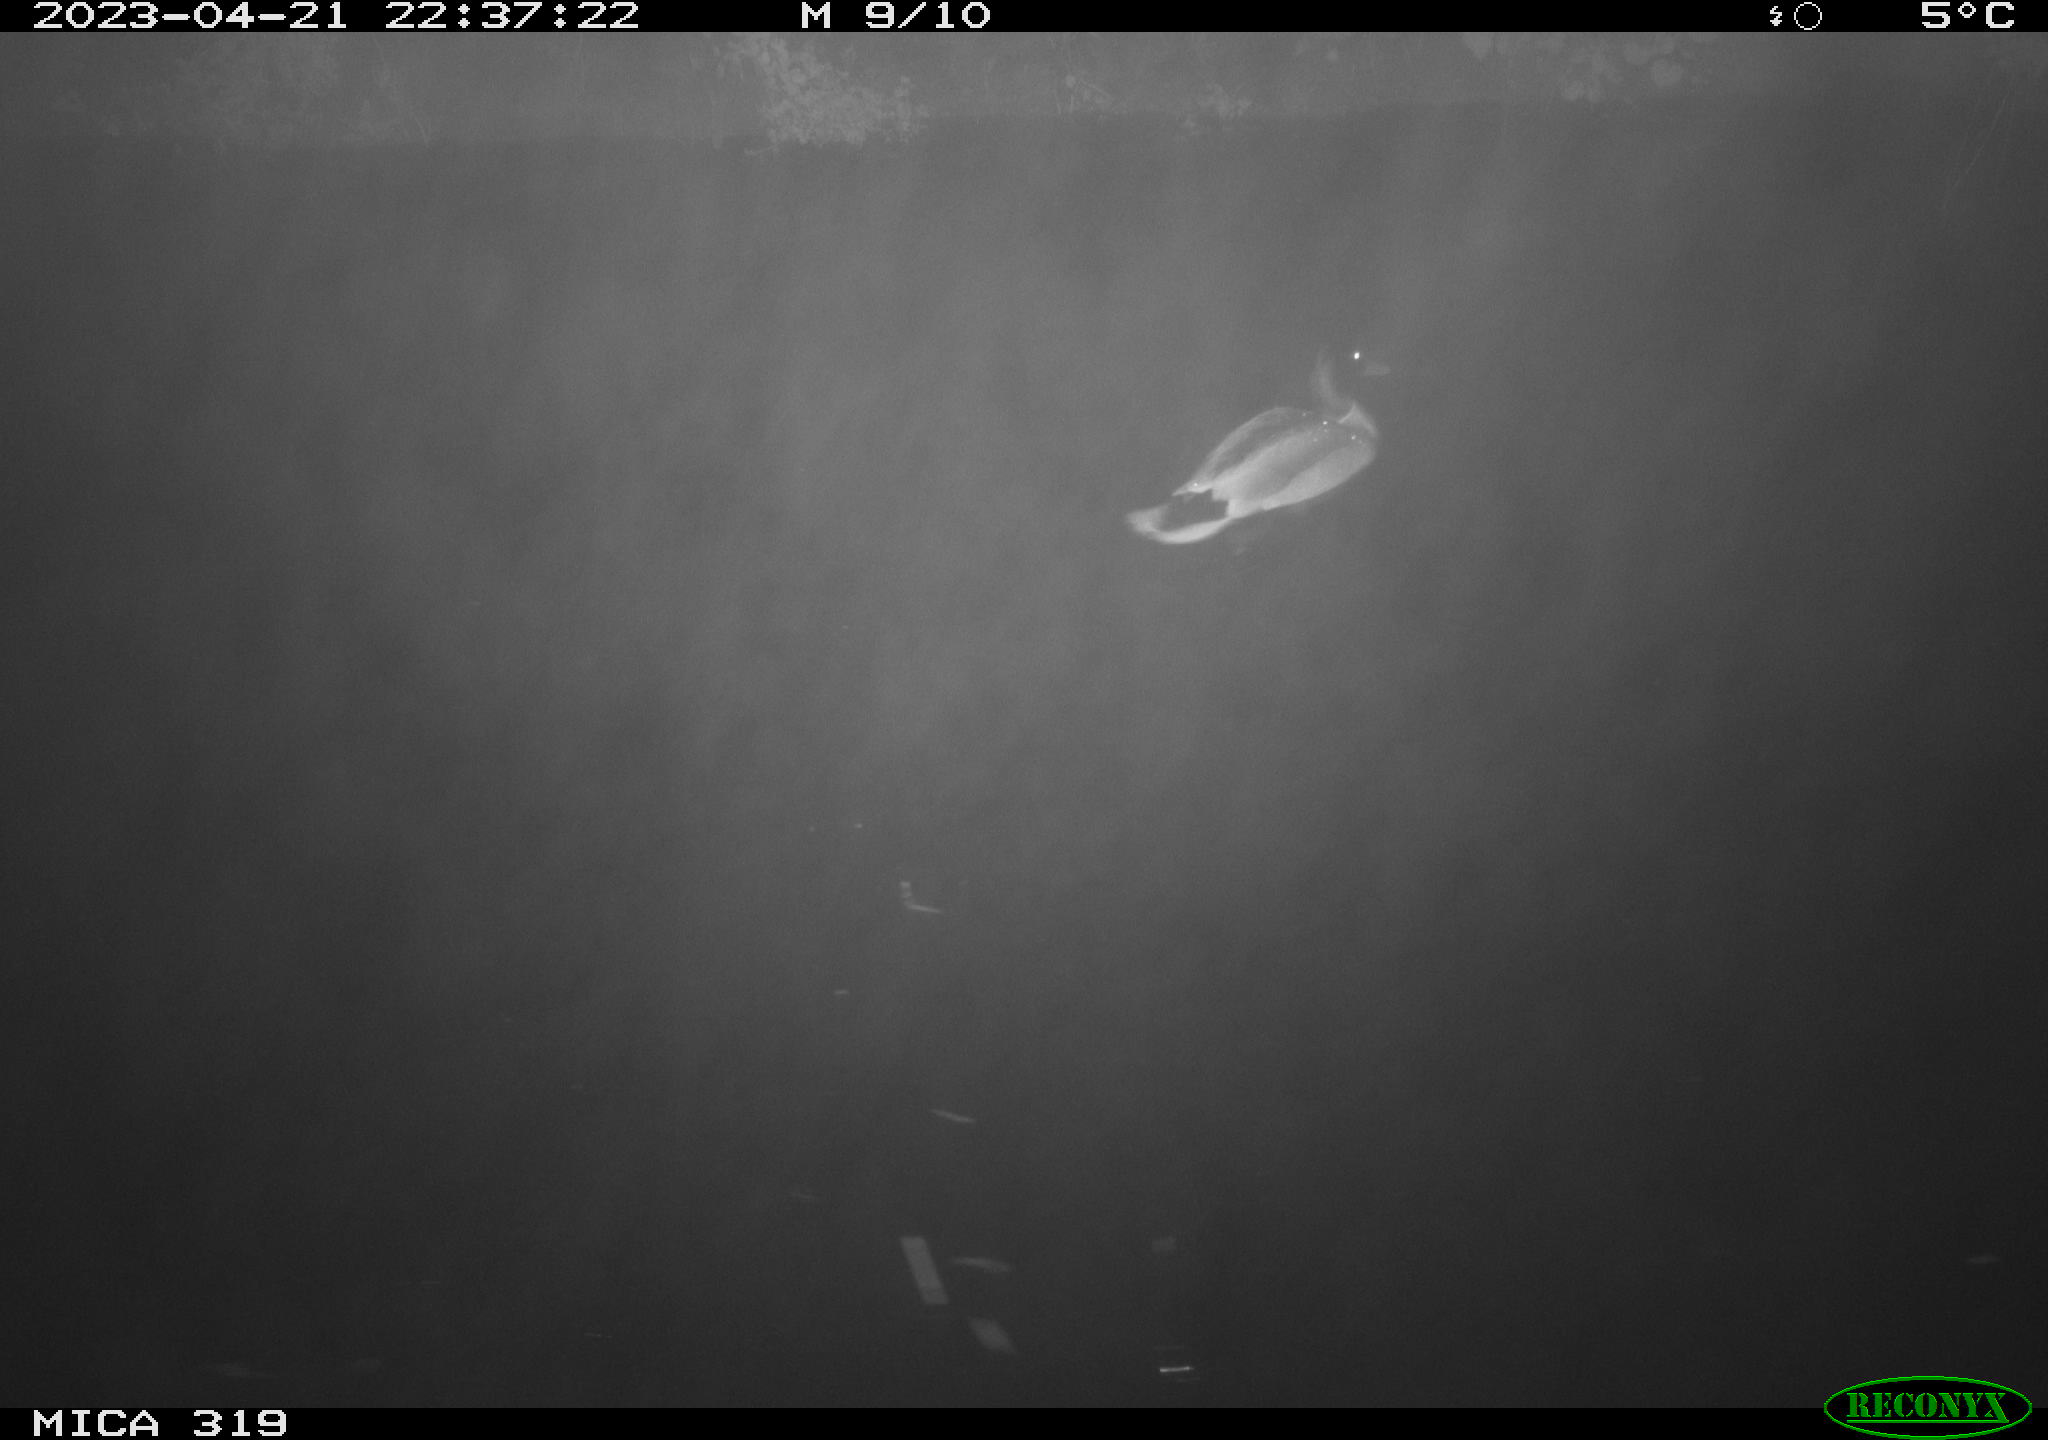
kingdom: Animalia
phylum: Chordata
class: Aves
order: Anseriformes
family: Anatidae
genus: Anas
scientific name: Anas
